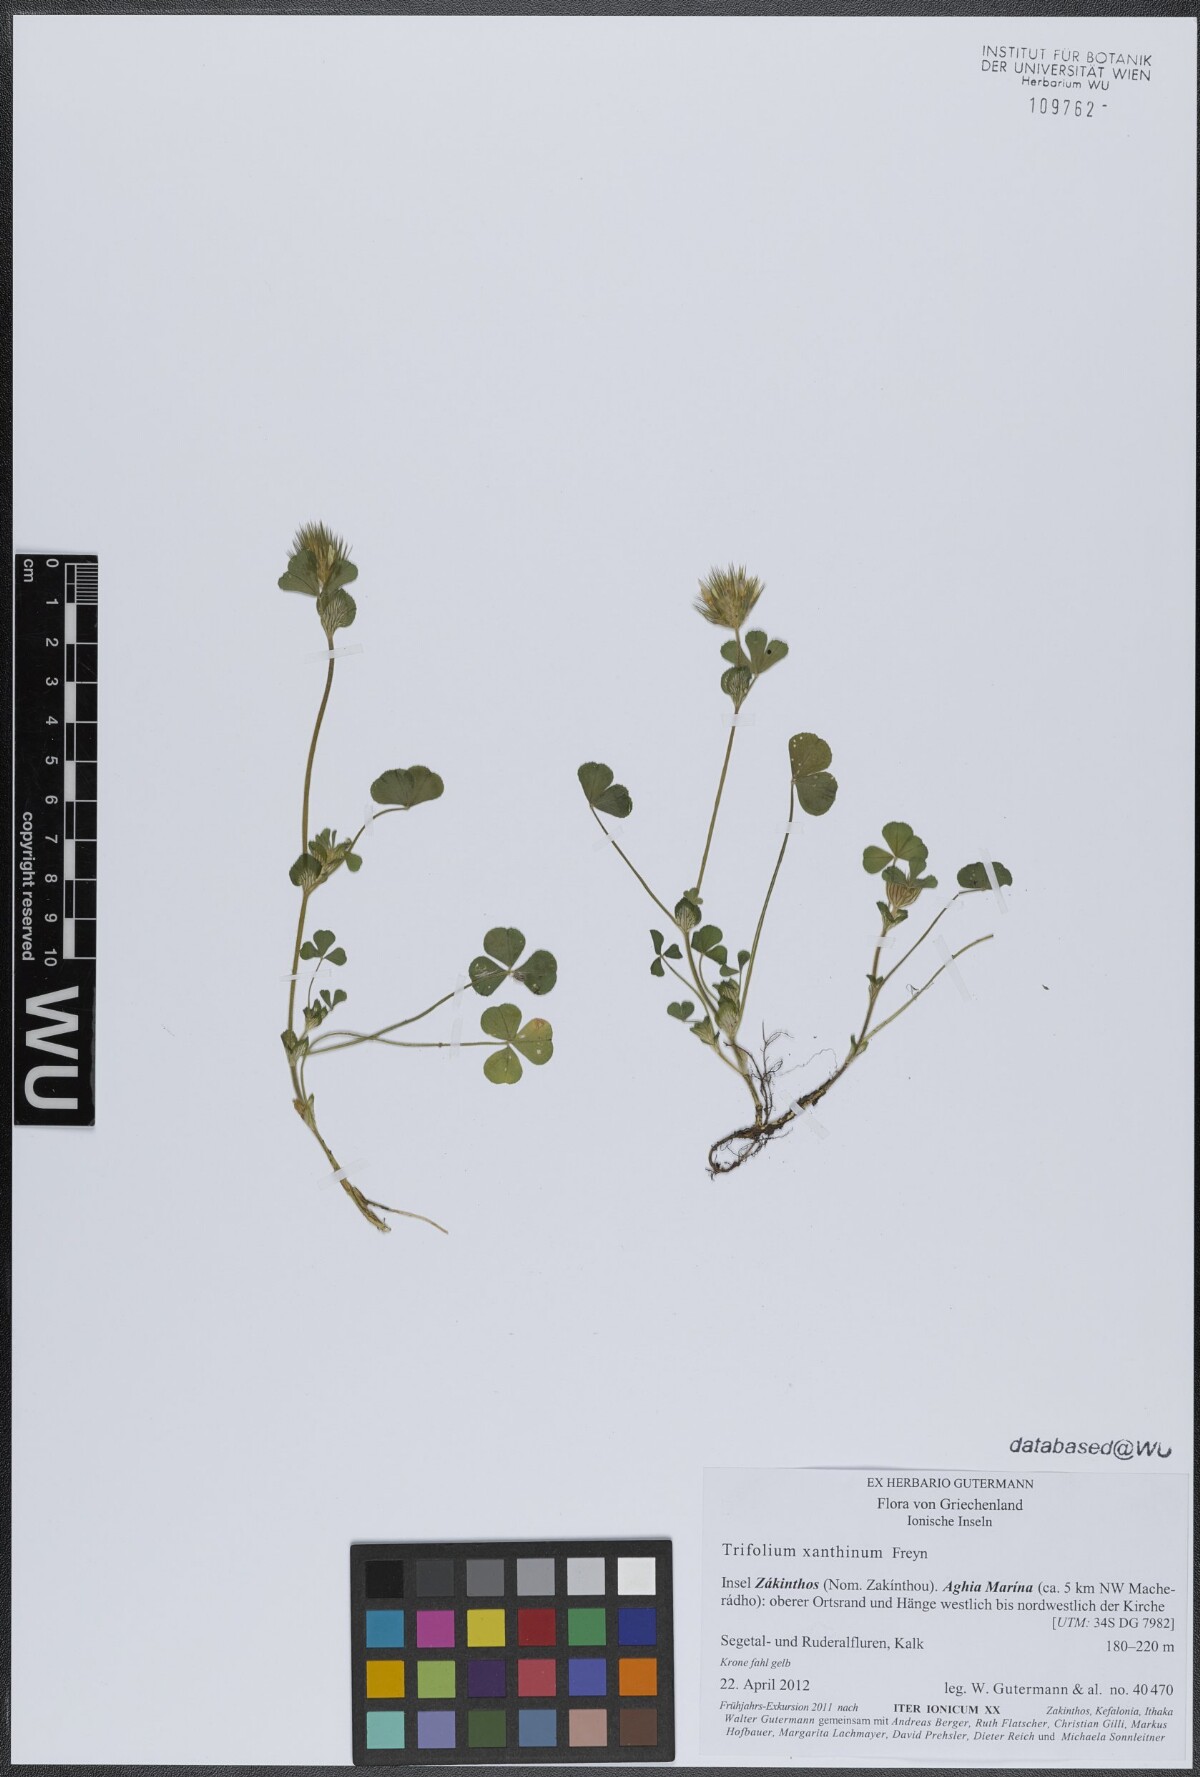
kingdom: Plantae
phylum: Tracheophyta
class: Magnoliopsida
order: Fabales
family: Fabaceae
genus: Trifolium
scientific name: Trifolium xanthinum
